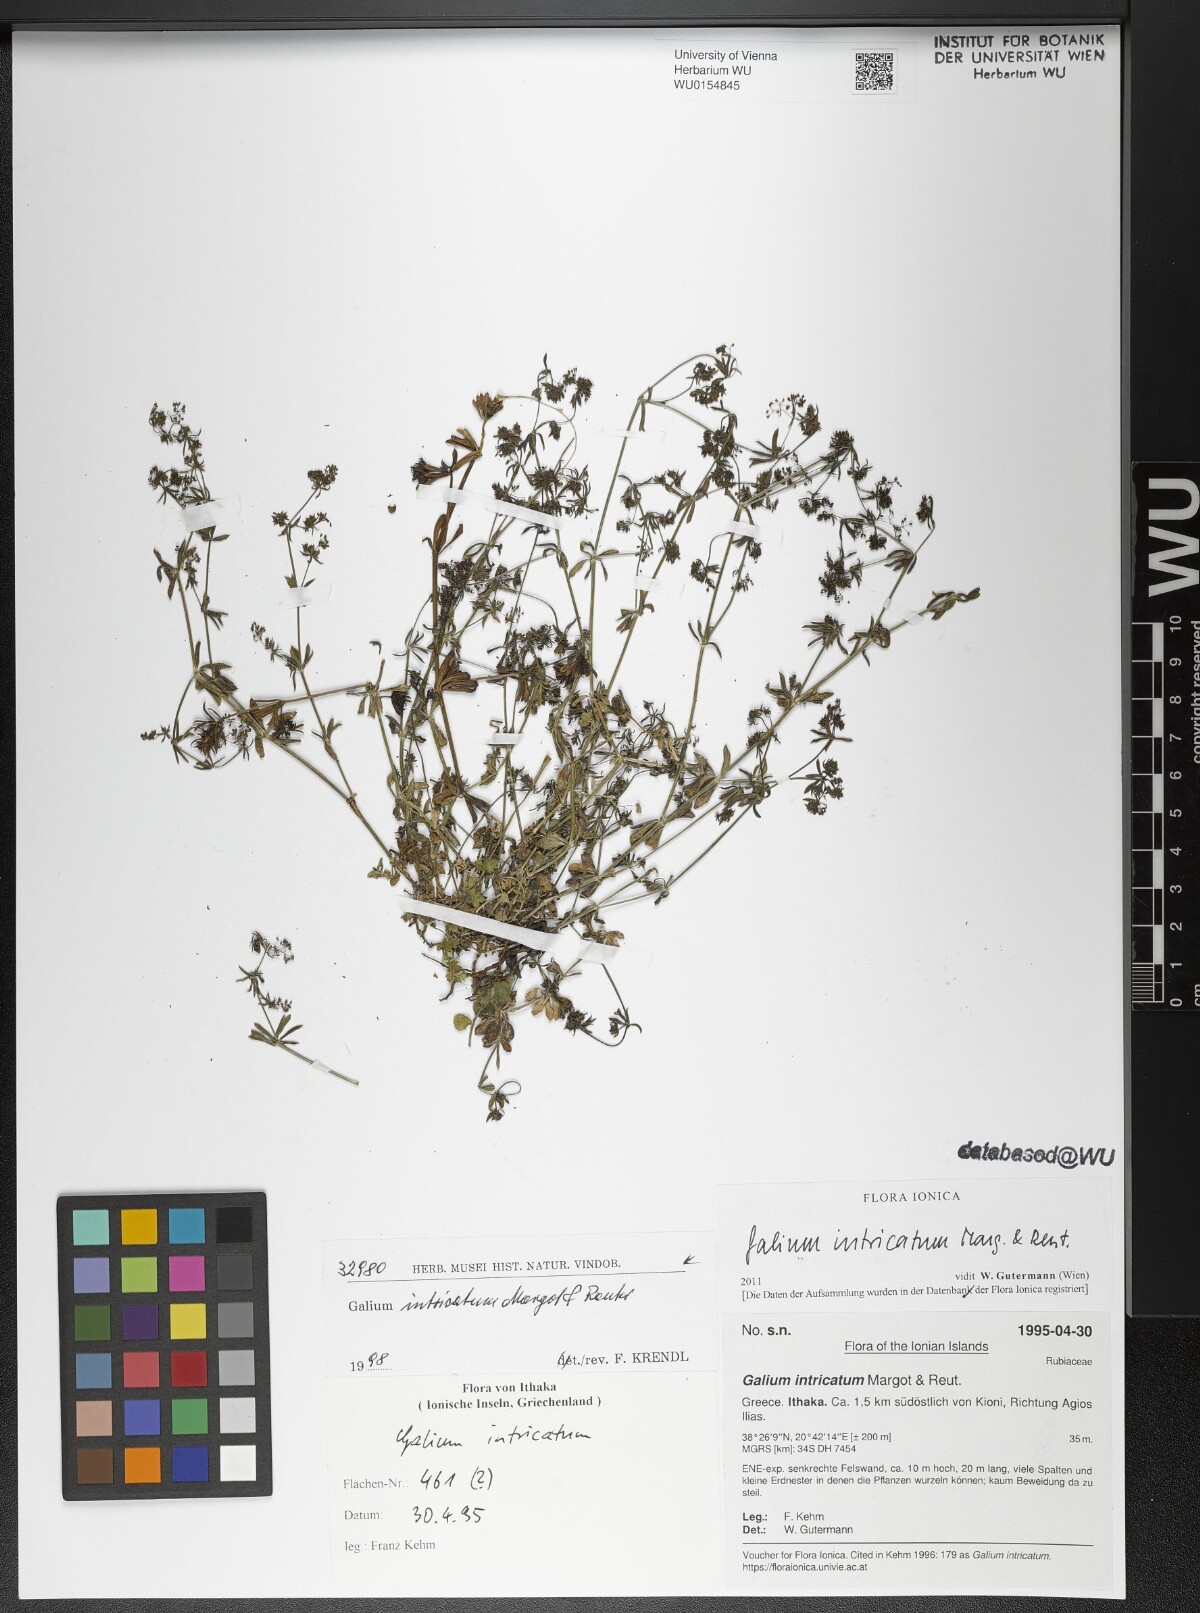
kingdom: Plantae
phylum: Tracheophyta
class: Magnoliopsida
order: Gentianales
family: Rubiaceae
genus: Galium
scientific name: Galium intricatum
